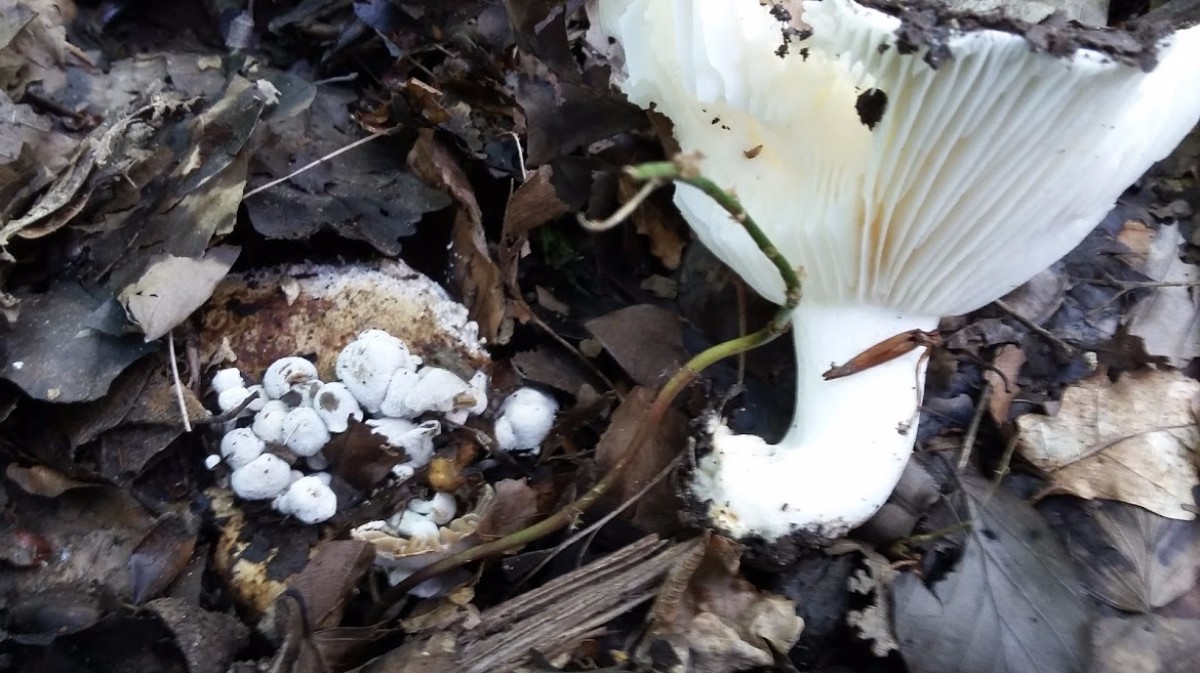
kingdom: Fungi
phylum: Basidiomycota
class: Agaricomycetes
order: Russulales
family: Russulaceae
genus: Russula
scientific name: Russula delica
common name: almindelig tragt-skørhat
